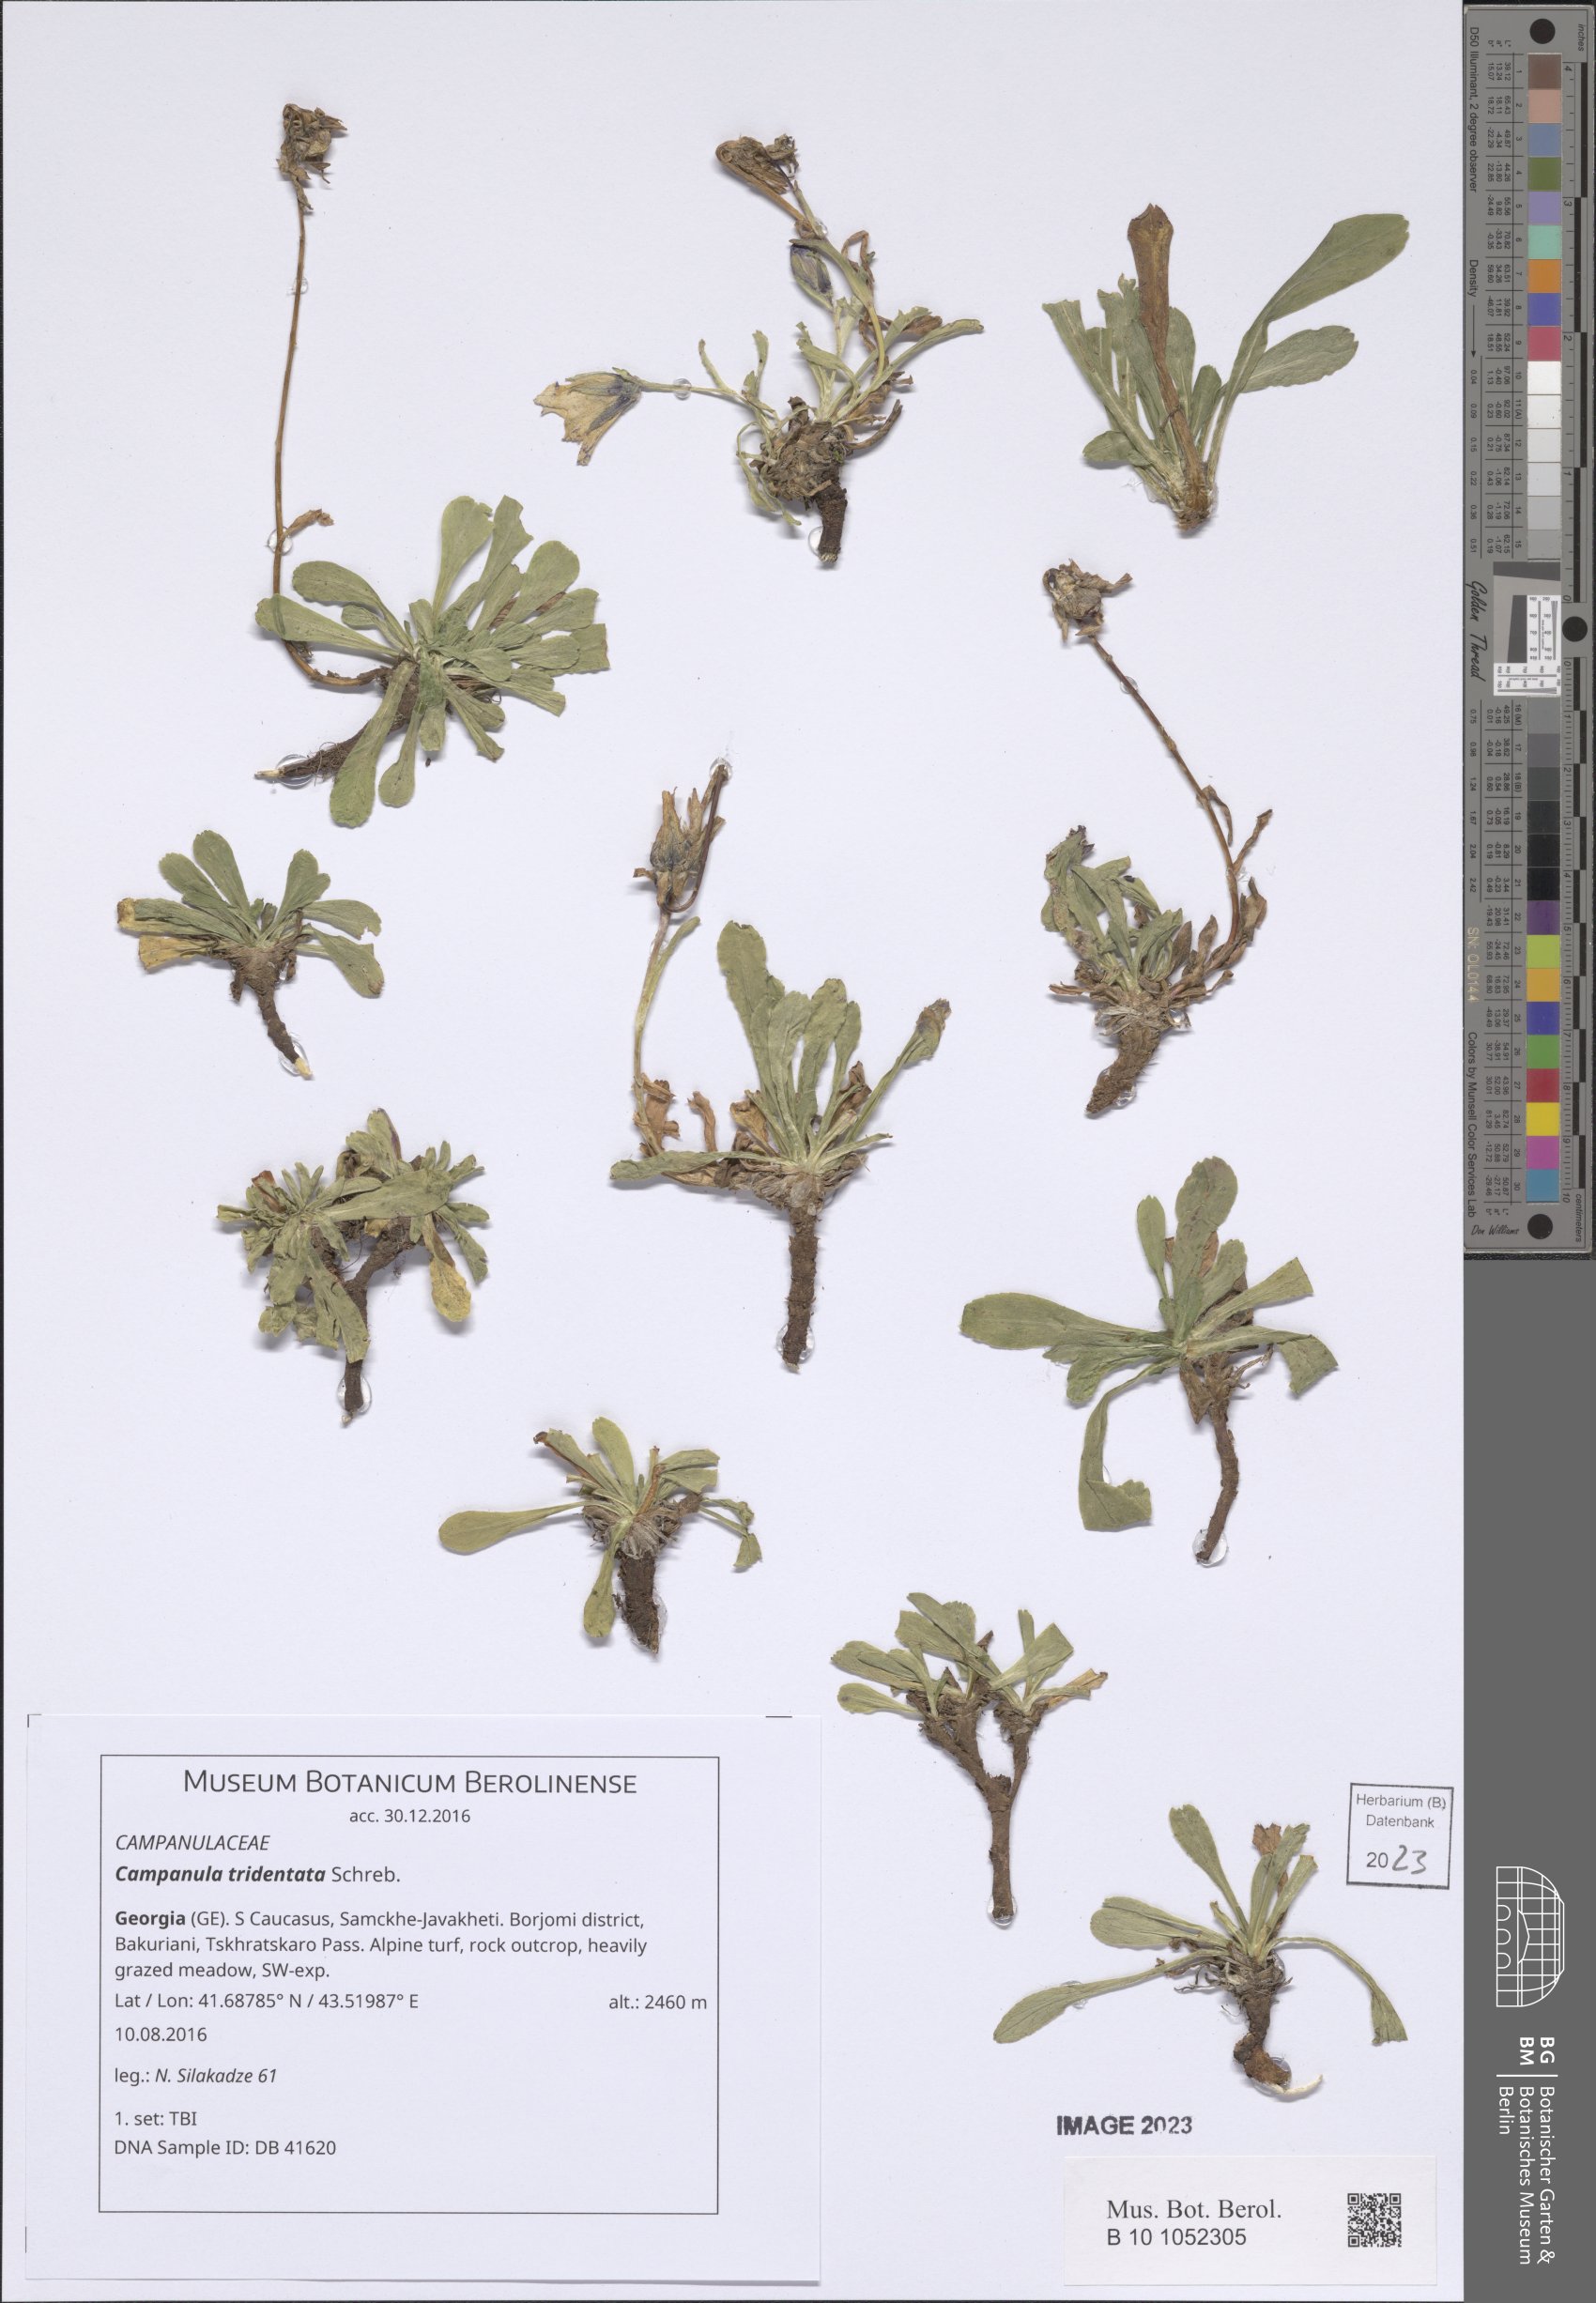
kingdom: Plantae
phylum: Tracheophyta
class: Magnoliopsida
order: Asterales
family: Campanulaceae
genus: Campanula
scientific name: Campanula tridentata
